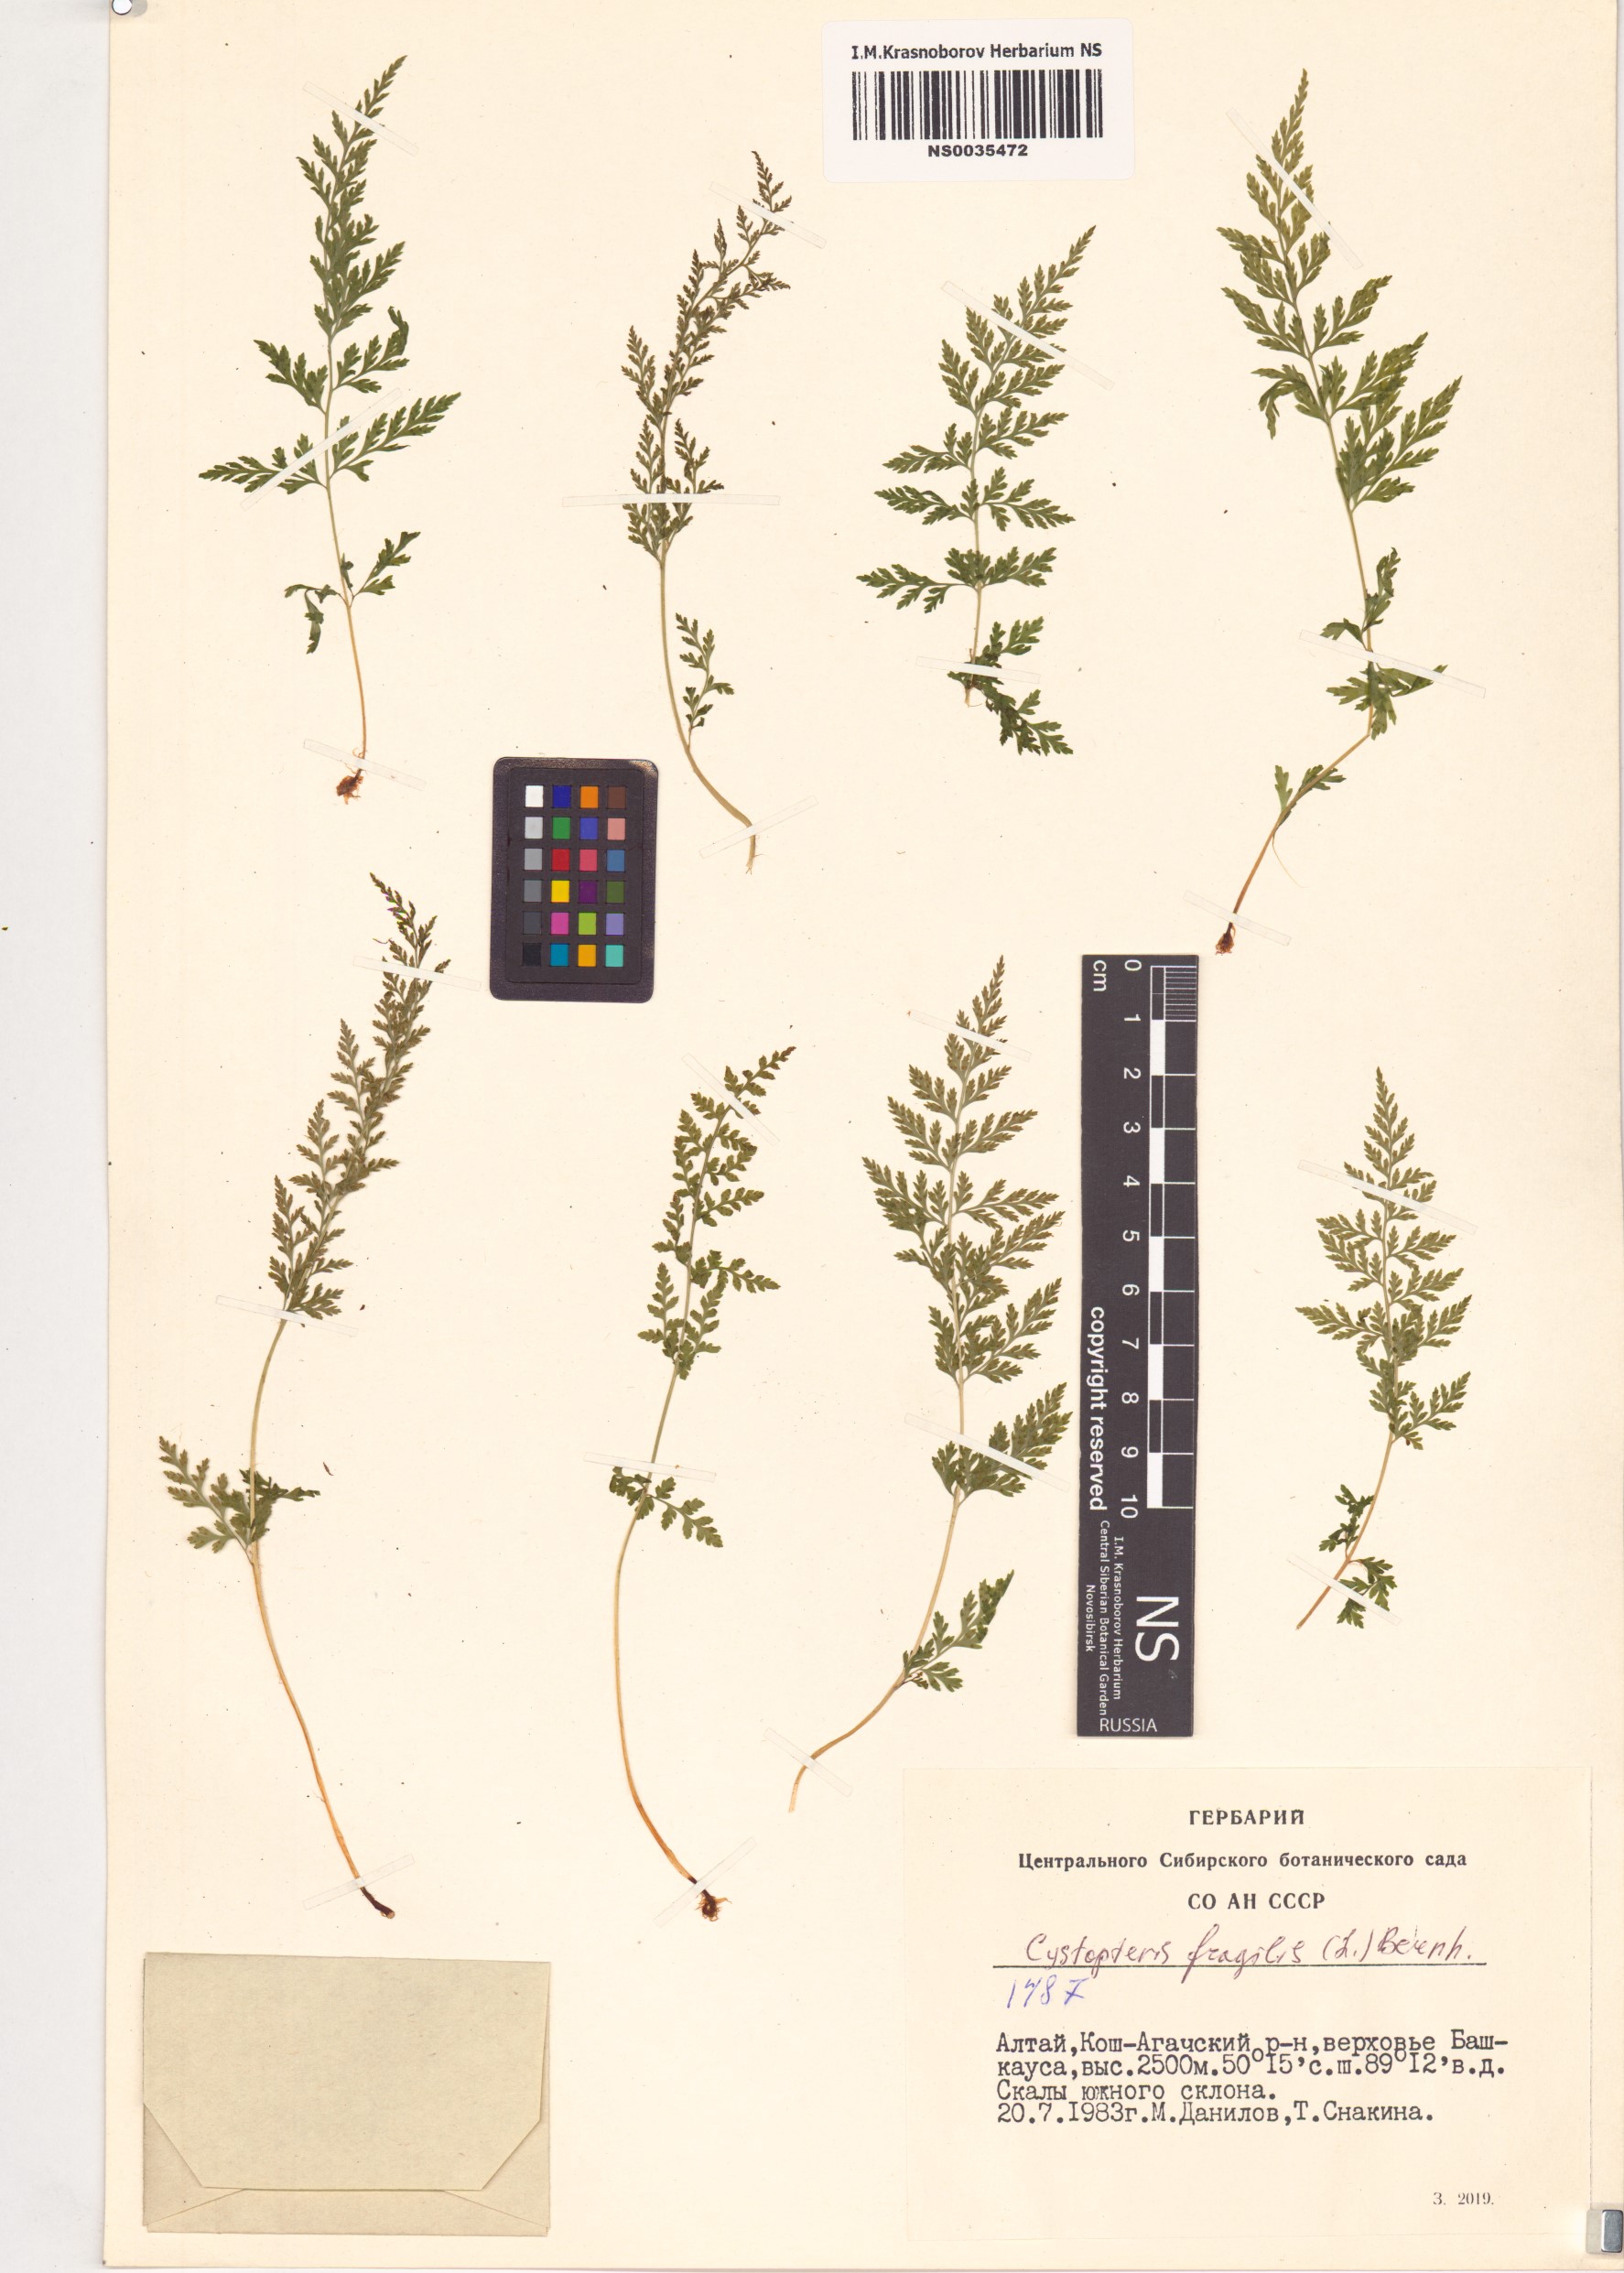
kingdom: Plantae
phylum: Tracheophyta
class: Polypodiopsida
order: Polypodiales
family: Cystopteridaceae
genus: Cystopteris
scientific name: Cystopteris fragilis
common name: Brittle bladder fern
